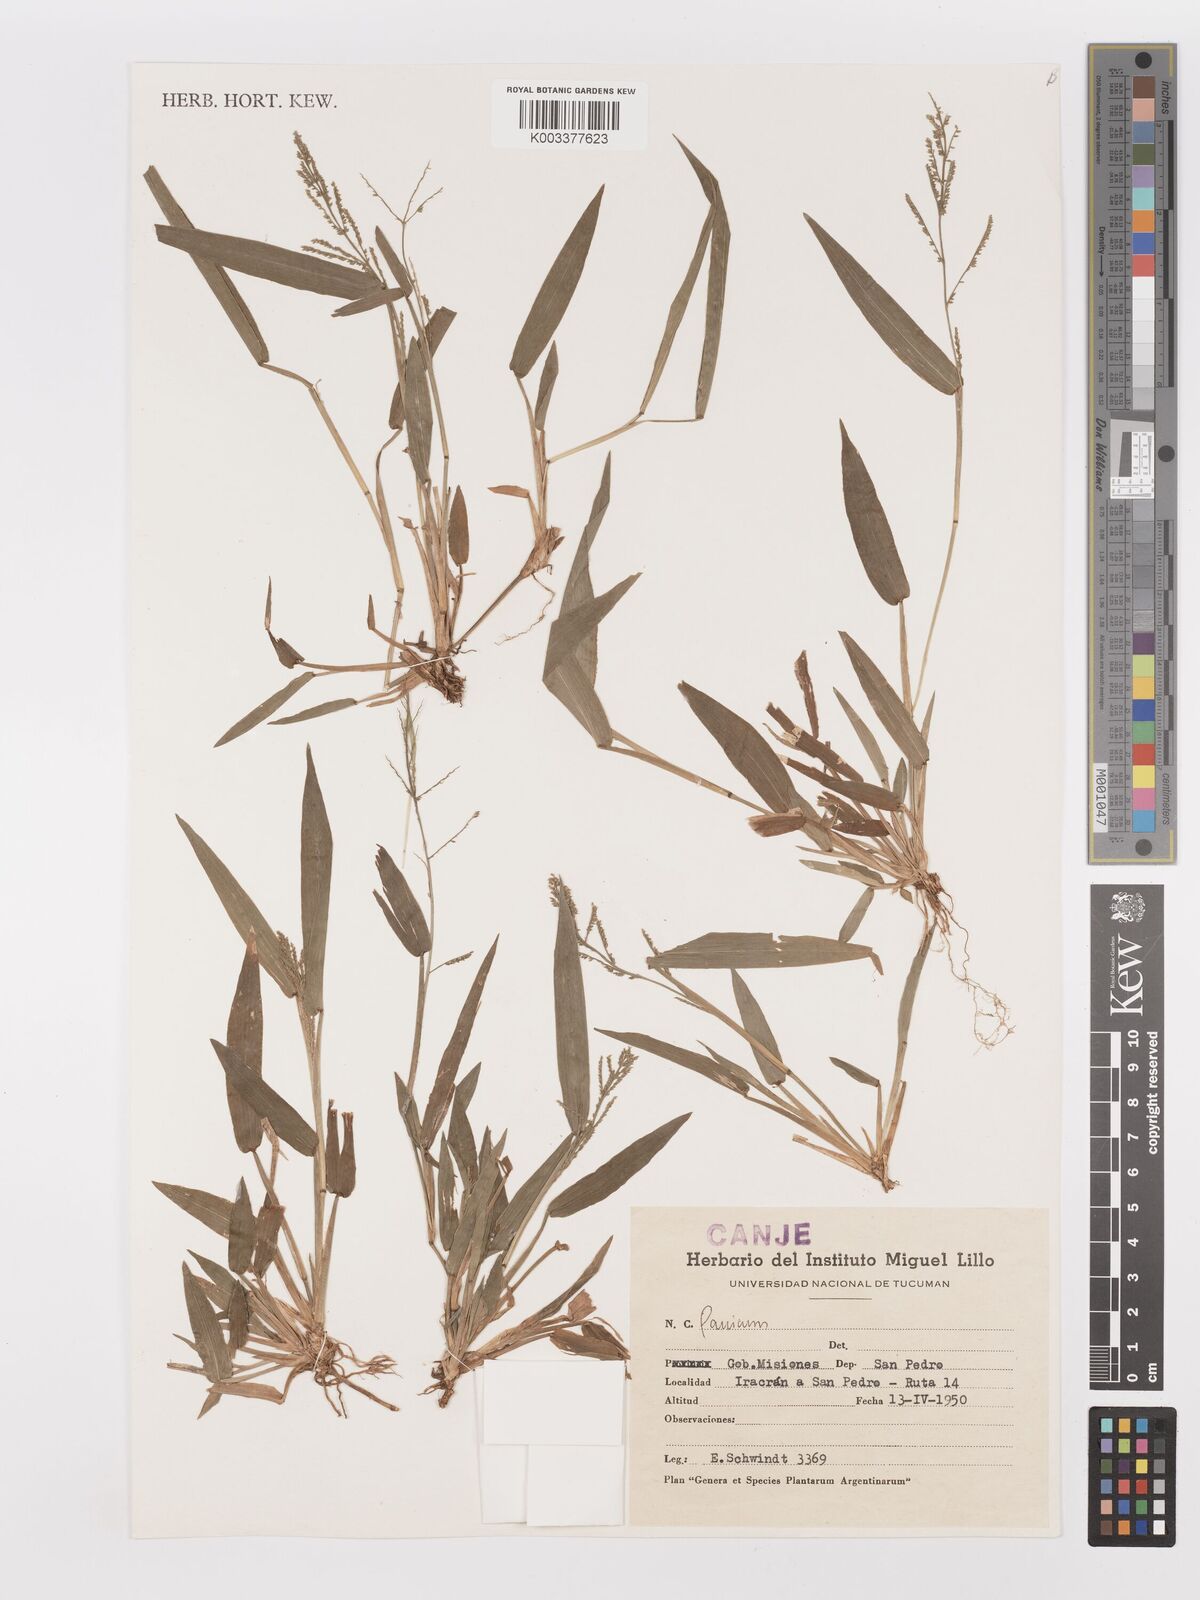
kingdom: Plantae
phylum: Tracheophyta
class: Liliopsida
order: Poales
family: Poaceae
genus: Panicum
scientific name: Panicum
